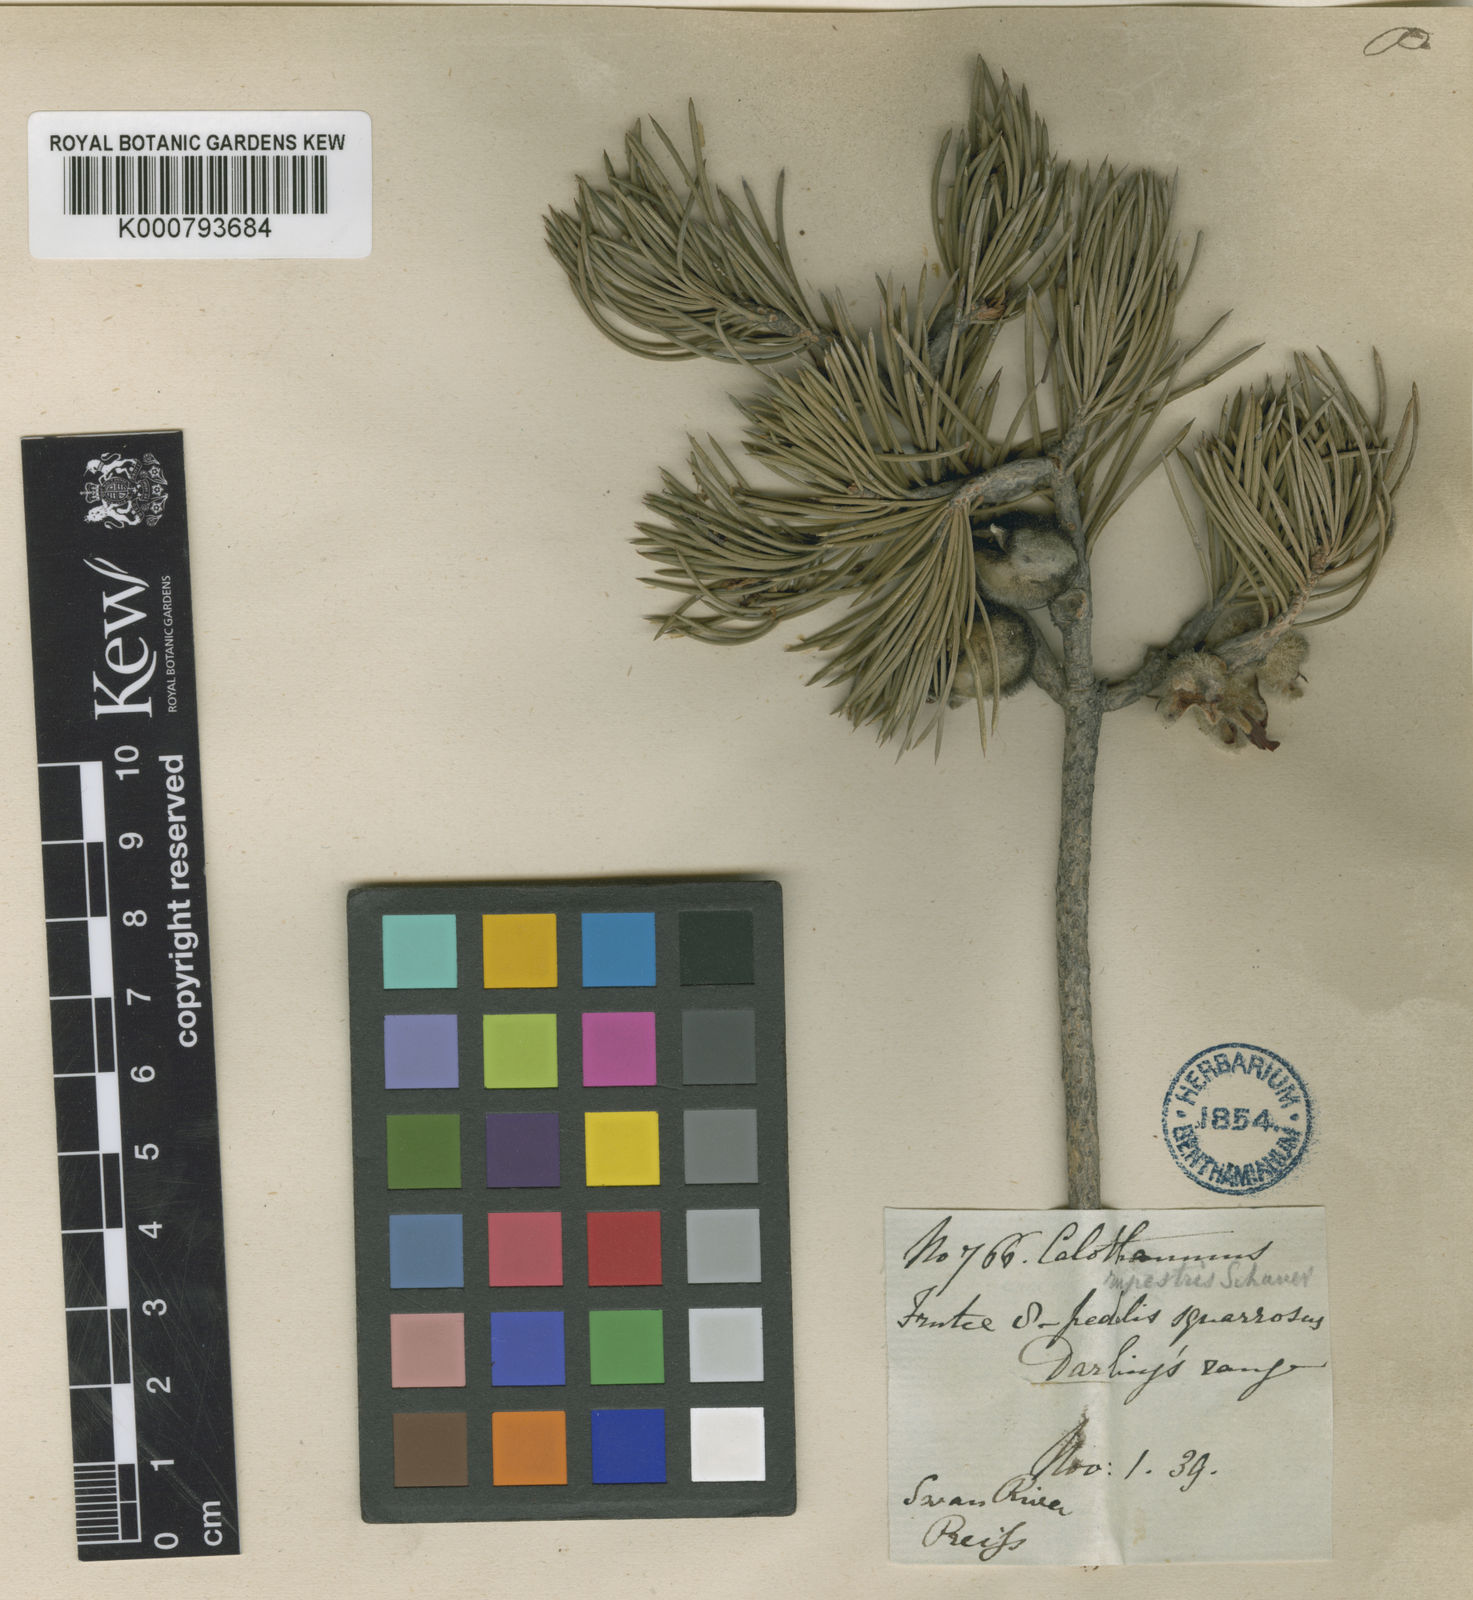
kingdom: Plantae
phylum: Tracheophyta
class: Magnoliopsida
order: Myrtales
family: Myrtaceae
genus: Melaleuca
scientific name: Melaleuca rupestris
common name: Cliff net-bush
